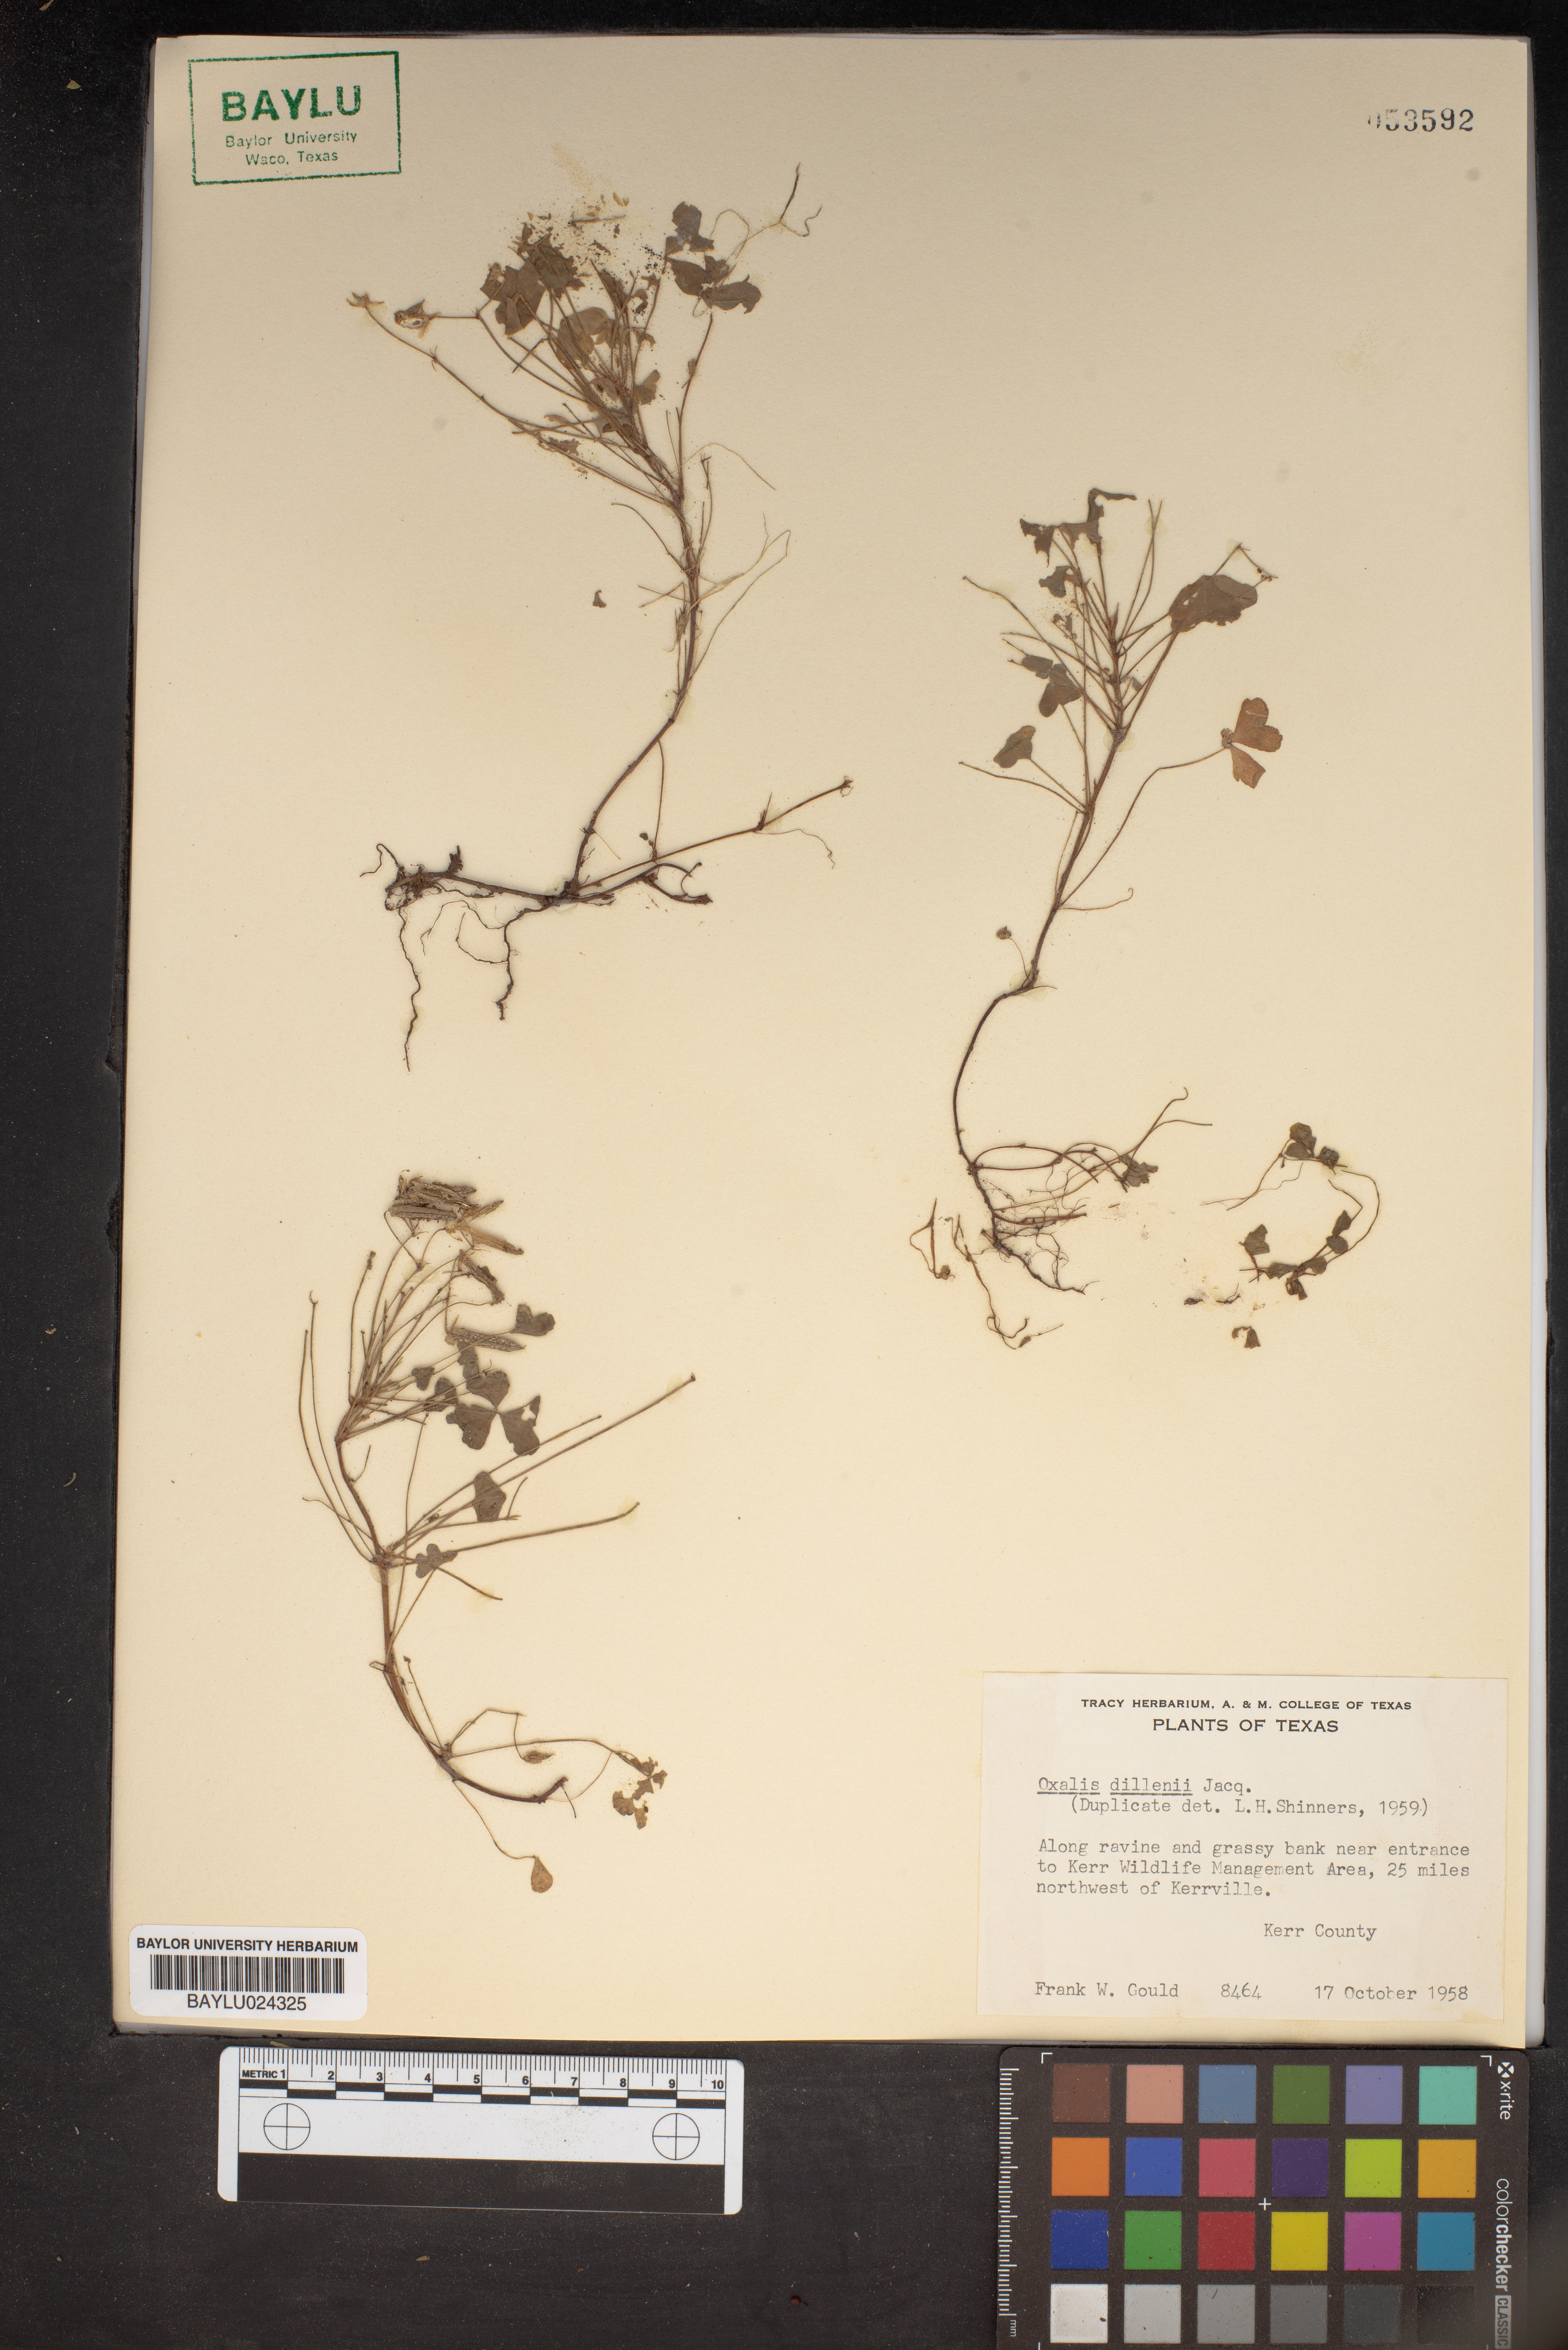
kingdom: Plantae
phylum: Tracheophyta
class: Magnoliopsida
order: Oxalidales
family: Oxalidaceae
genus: Oxalis
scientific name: Oxalis dillenii
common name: Sussex yellow-sorrel
